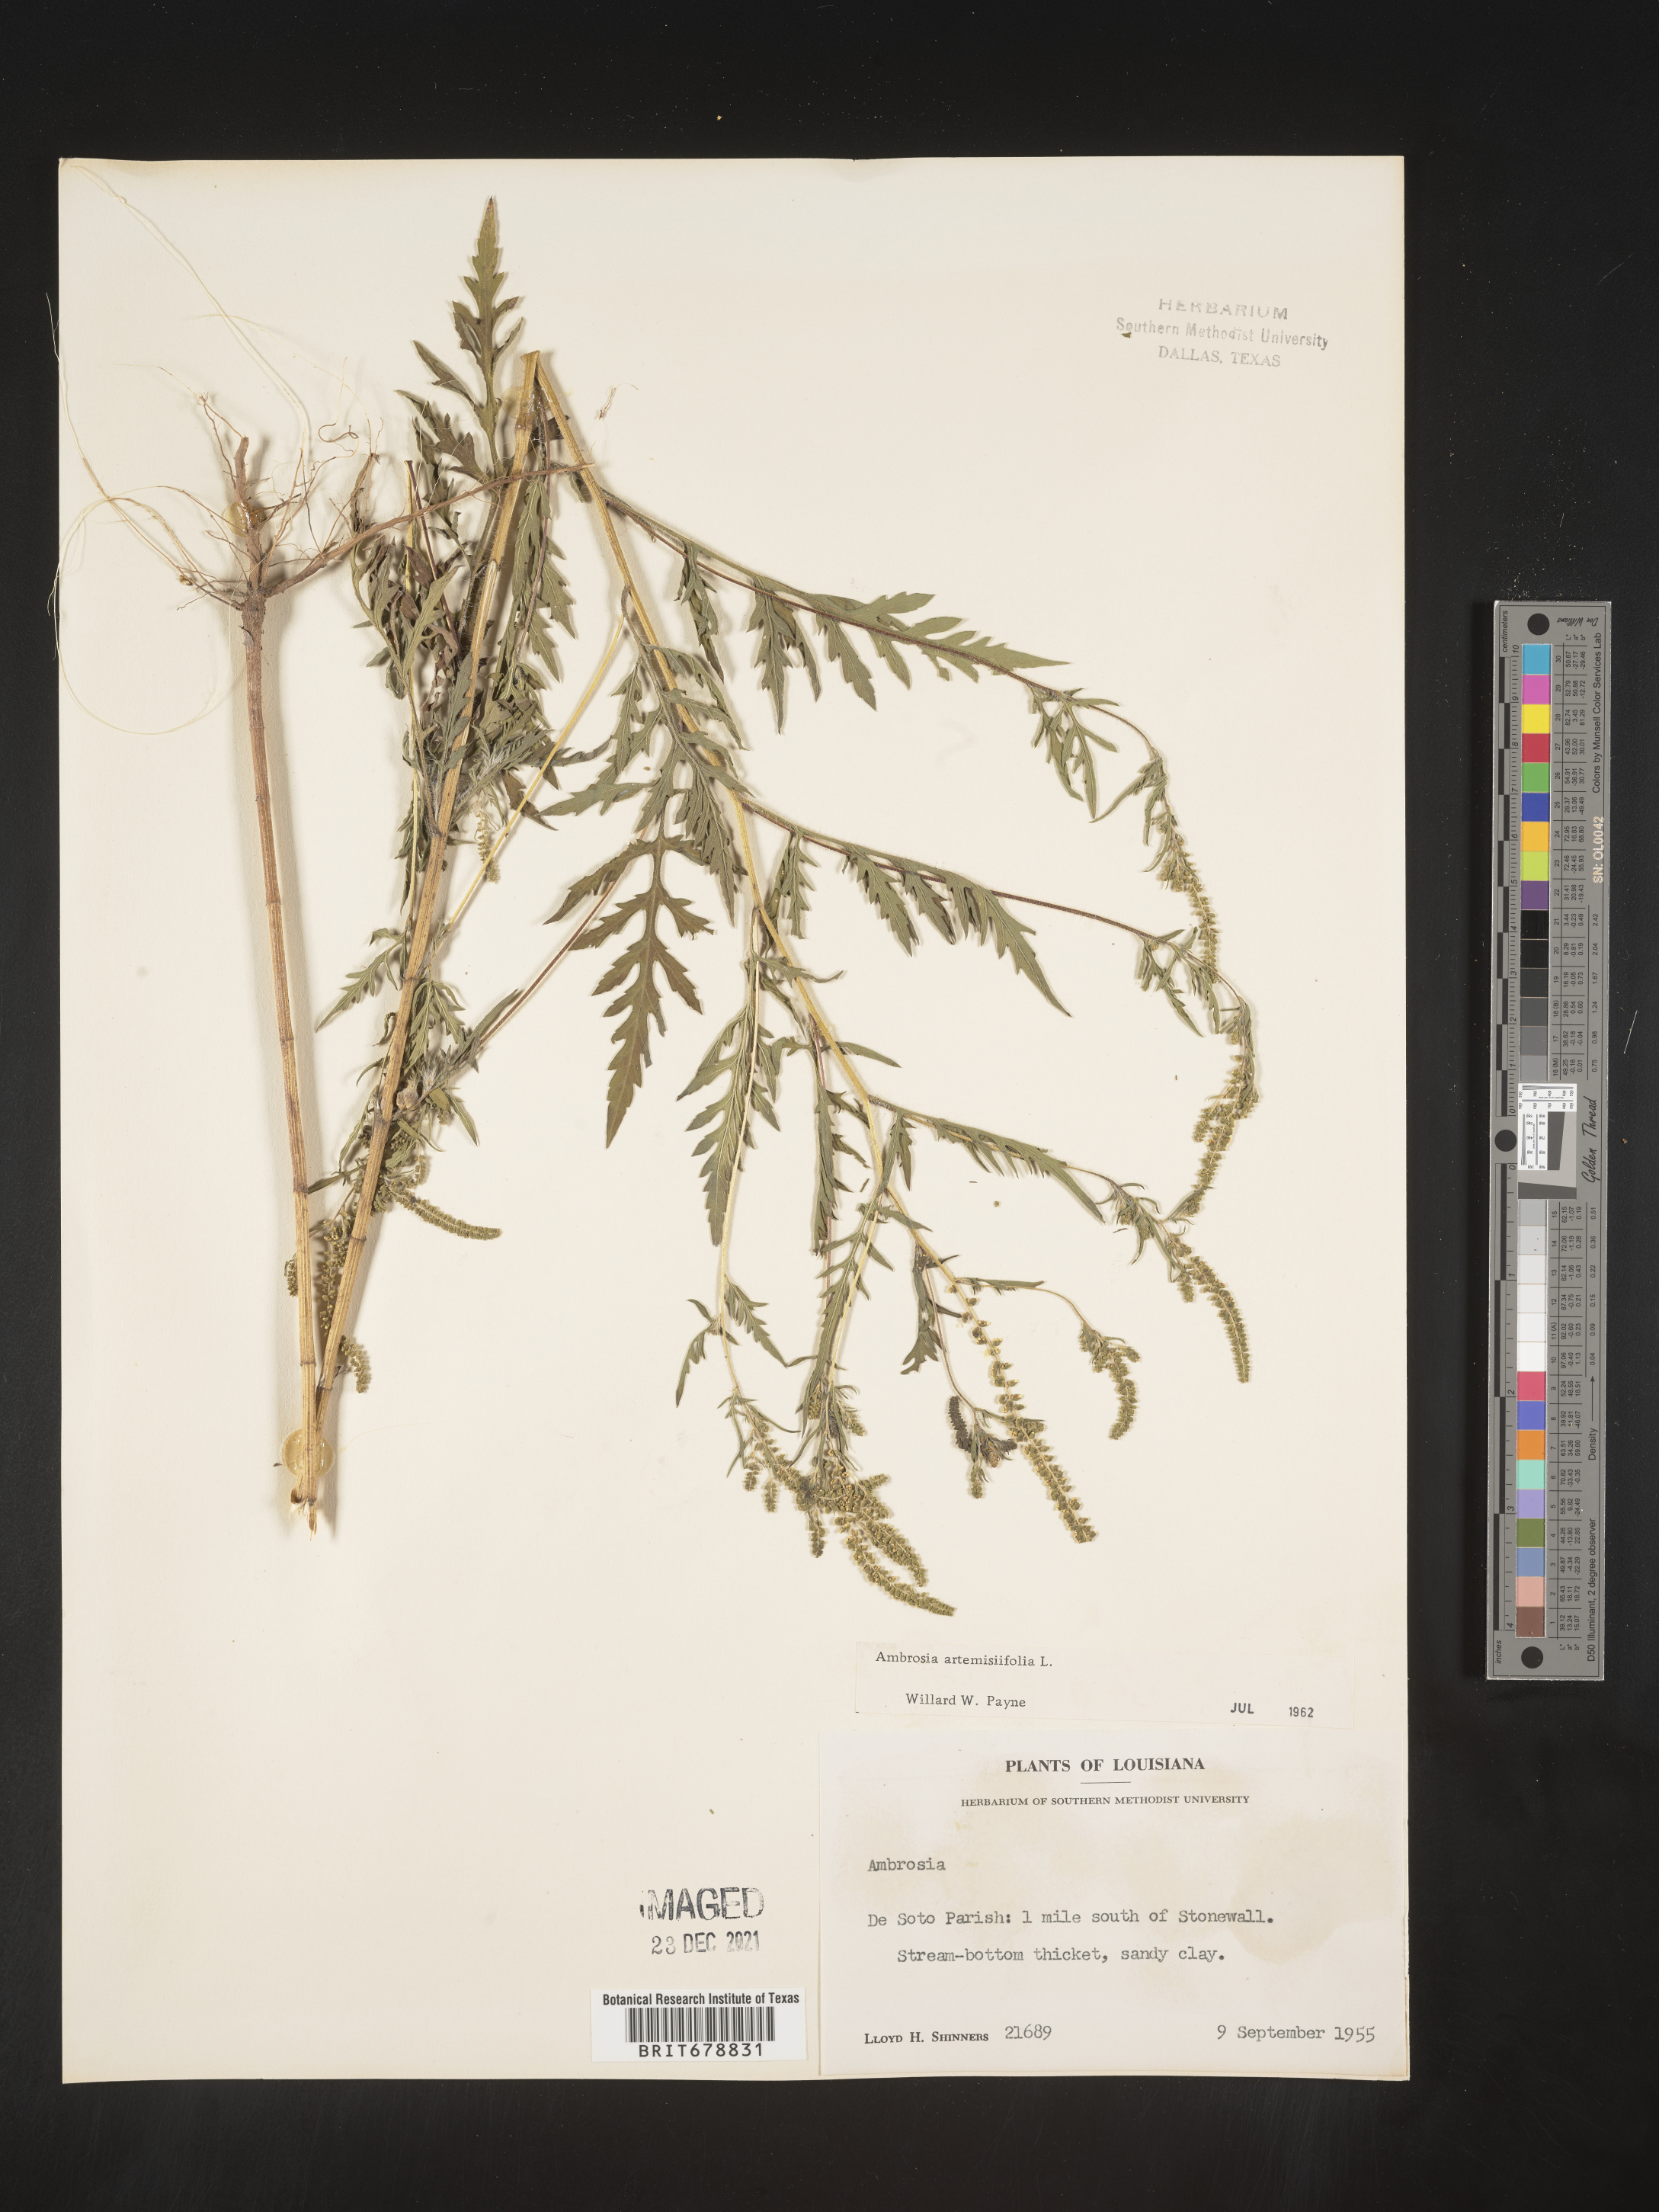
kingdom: Plantae
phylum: Tracheophyta
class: Magnoliopsida
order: Asterales
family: Asteraceae
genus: Ambrosia
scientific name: Ambrosia artemisiifolia
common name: Annual ragweed
